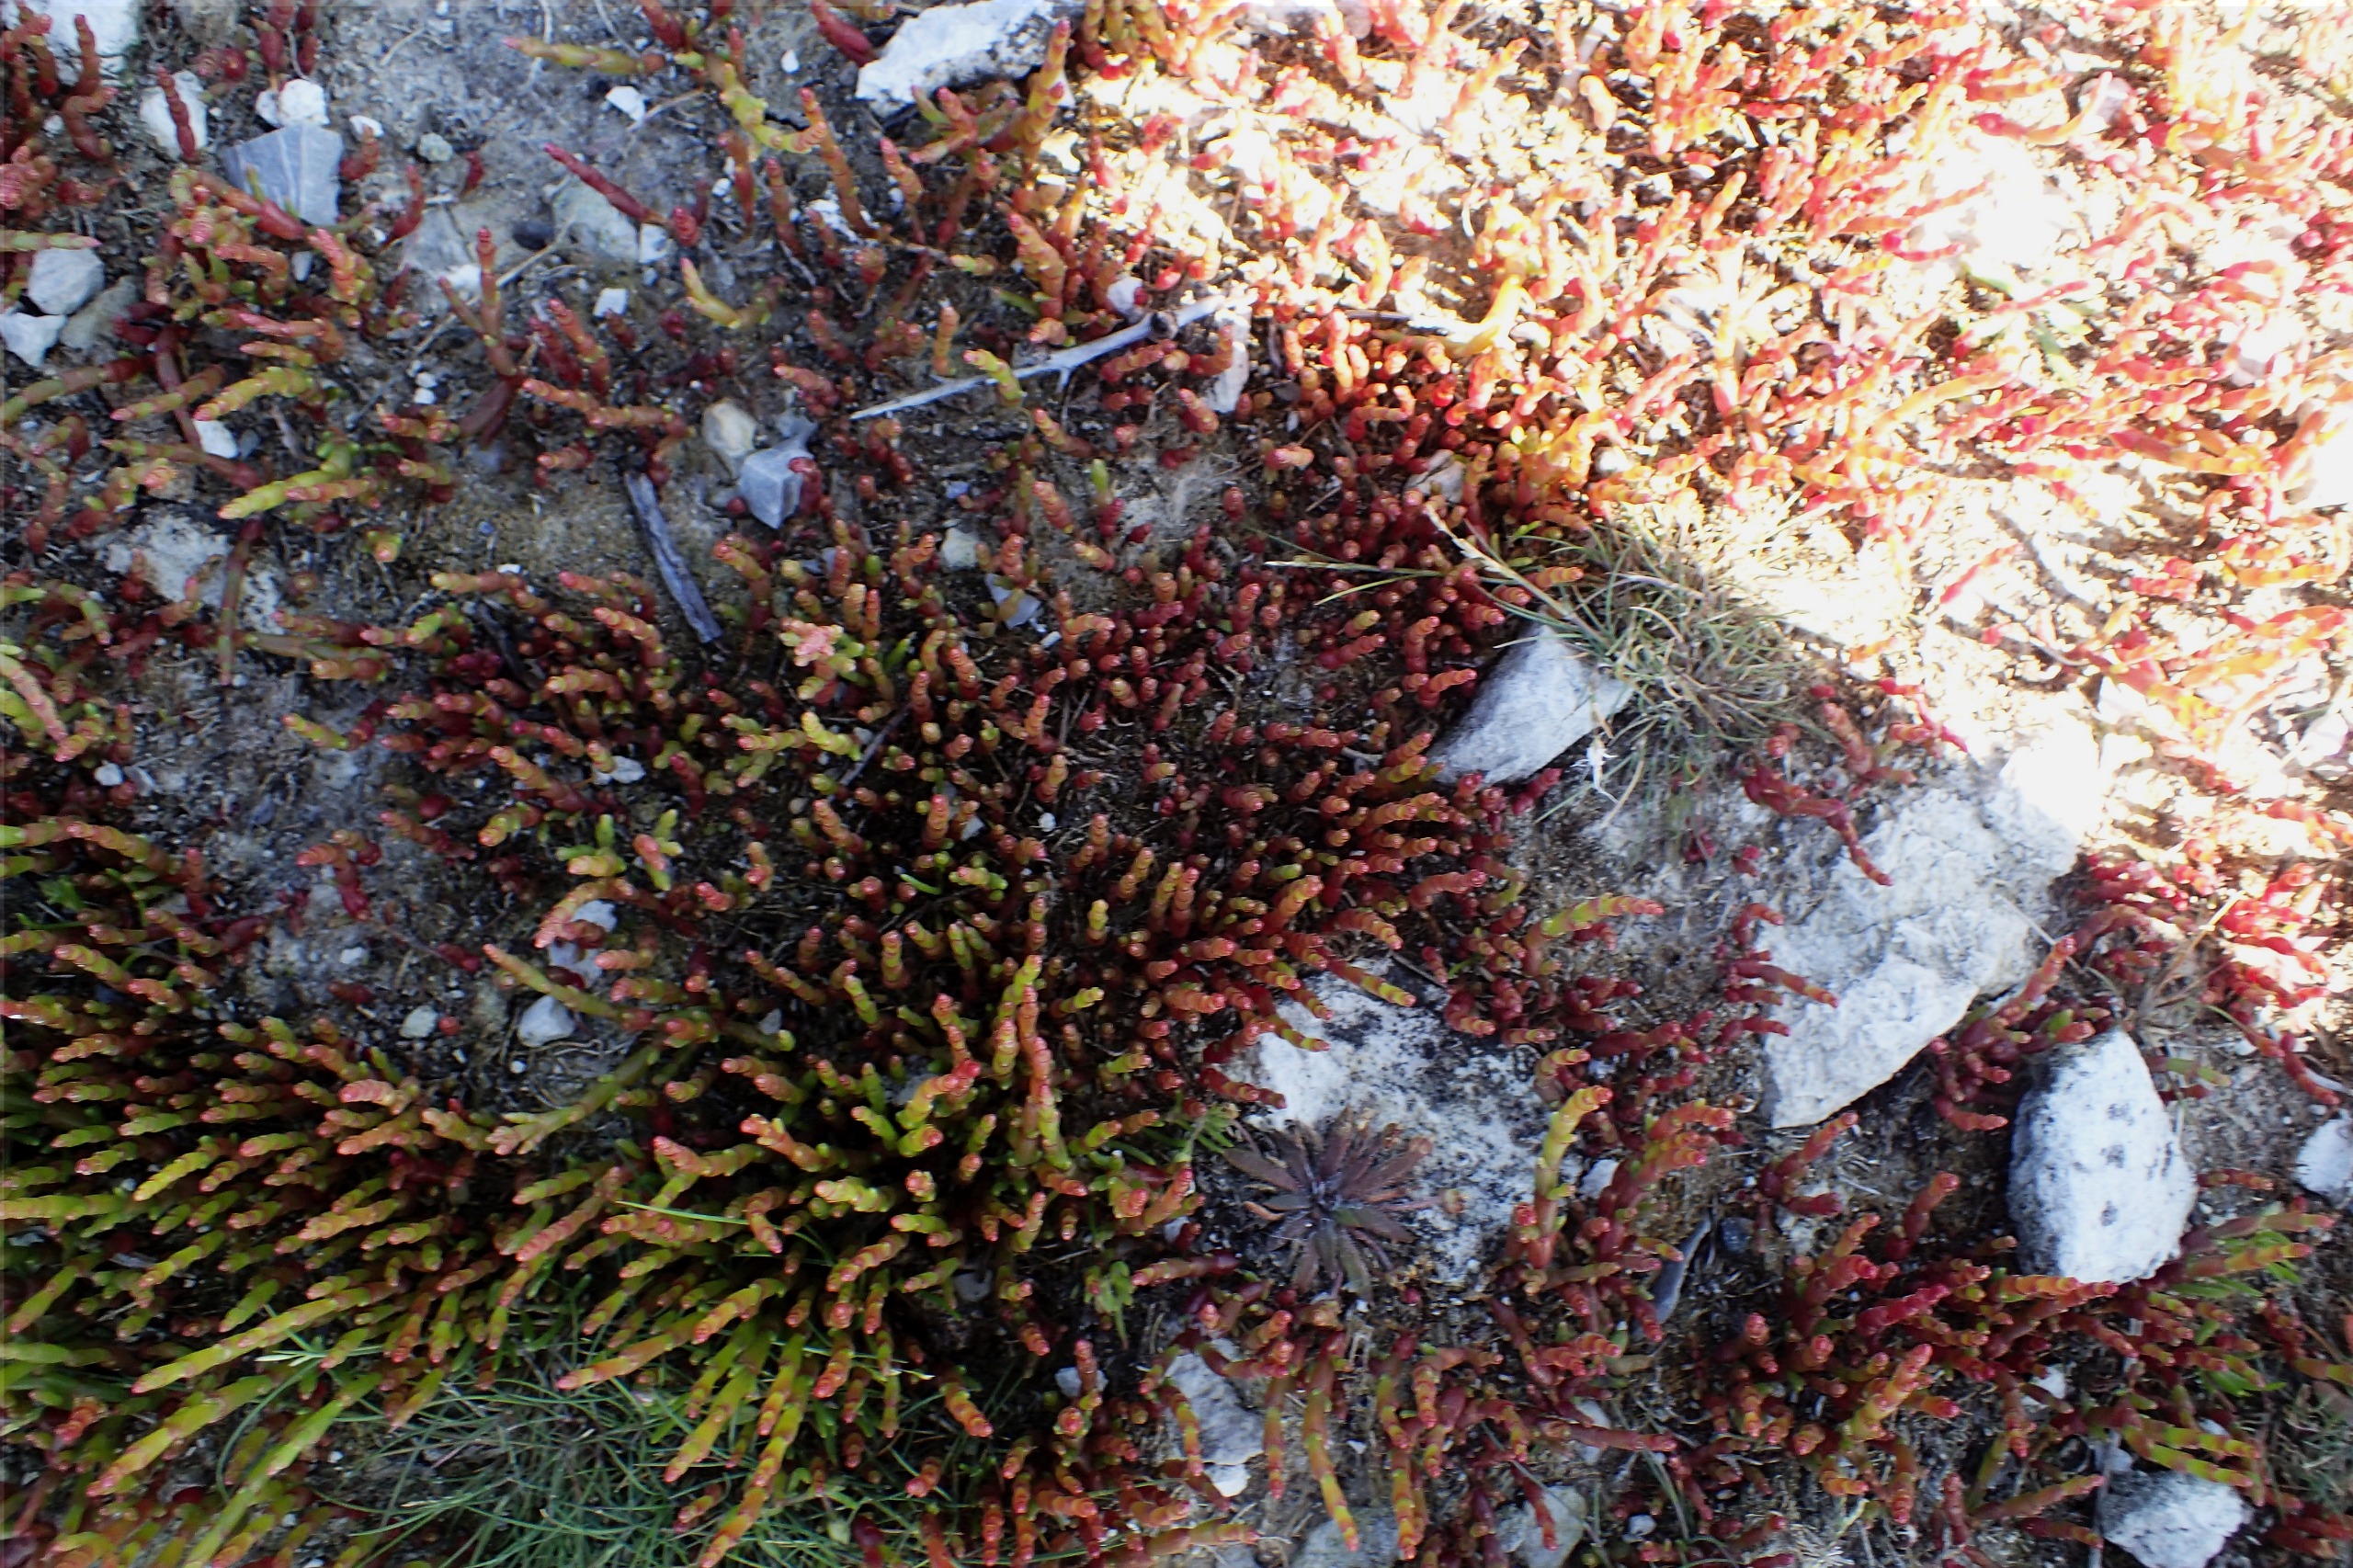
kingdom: Plantae
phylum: Tracheophyta
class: Magnoliopsida
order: Caryophyllales
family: Amaranthaceae
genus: Salicornia
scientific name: Salicornia europaea
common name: Almindelig salturt
